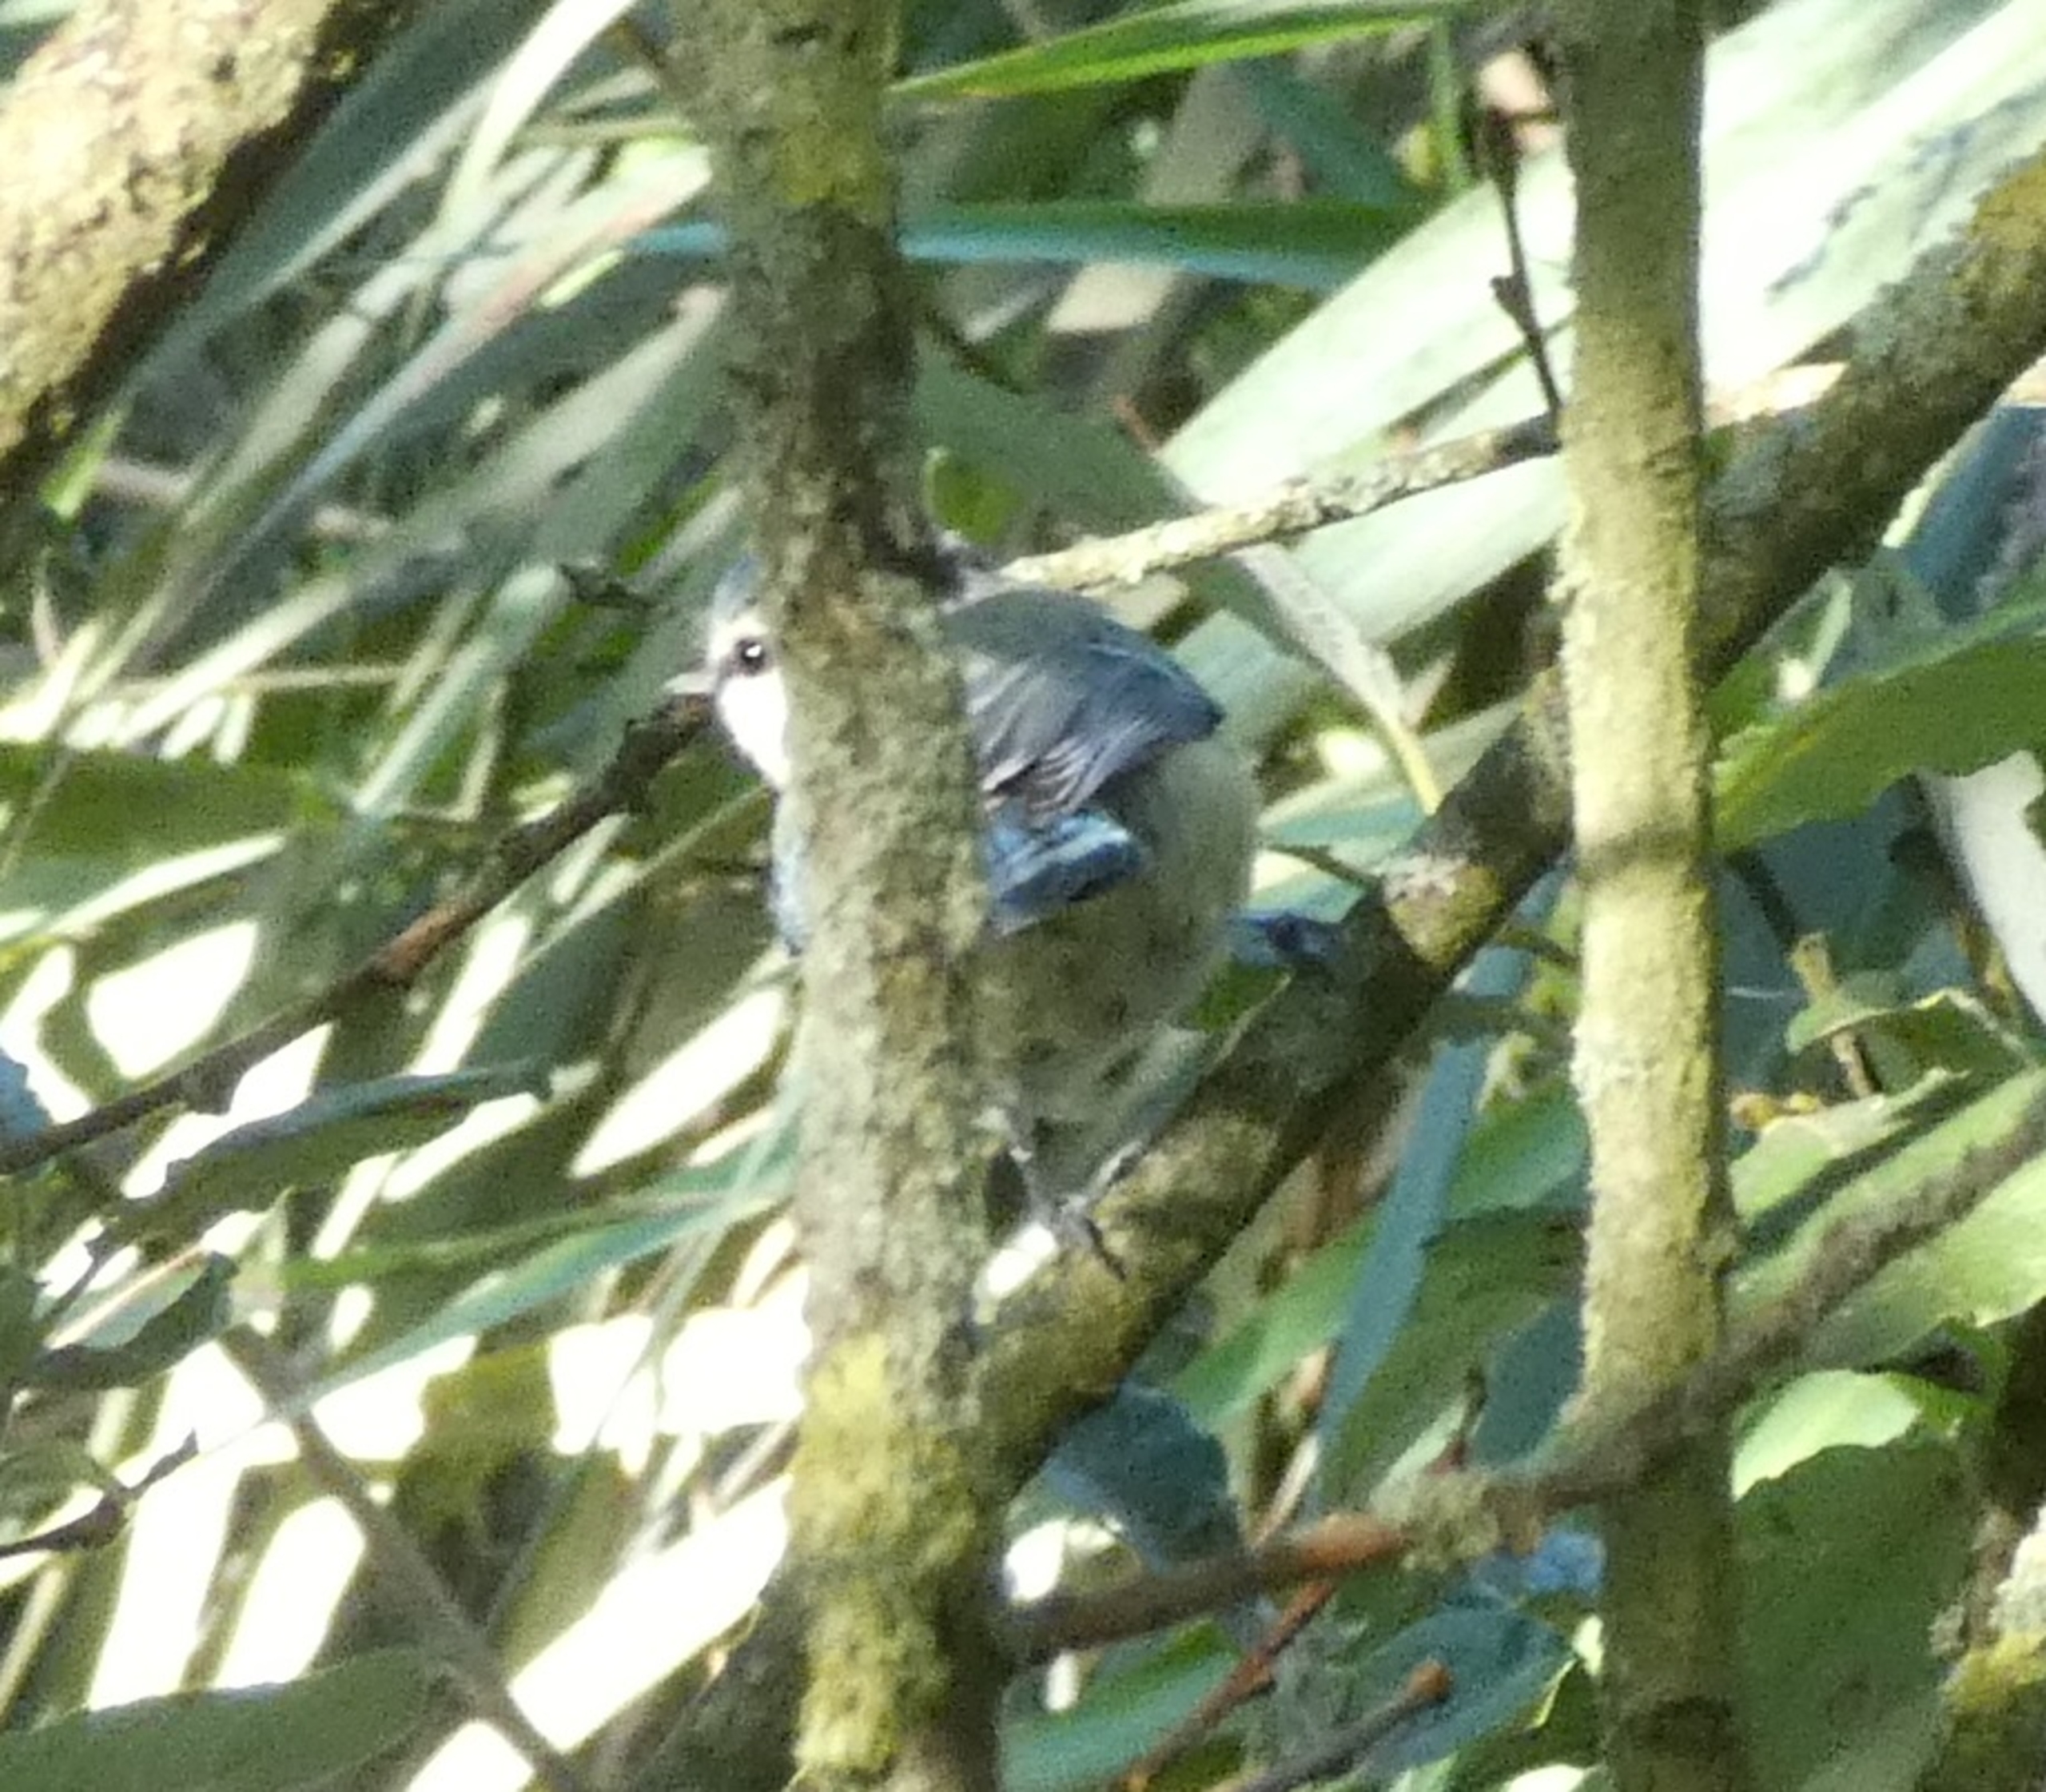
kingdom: Animalia
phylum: Chordata
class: Aves
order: Passeriformes
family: Paridae
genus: Cyanistes
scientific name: Cyanistes caeruleus
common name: Blåmejse
